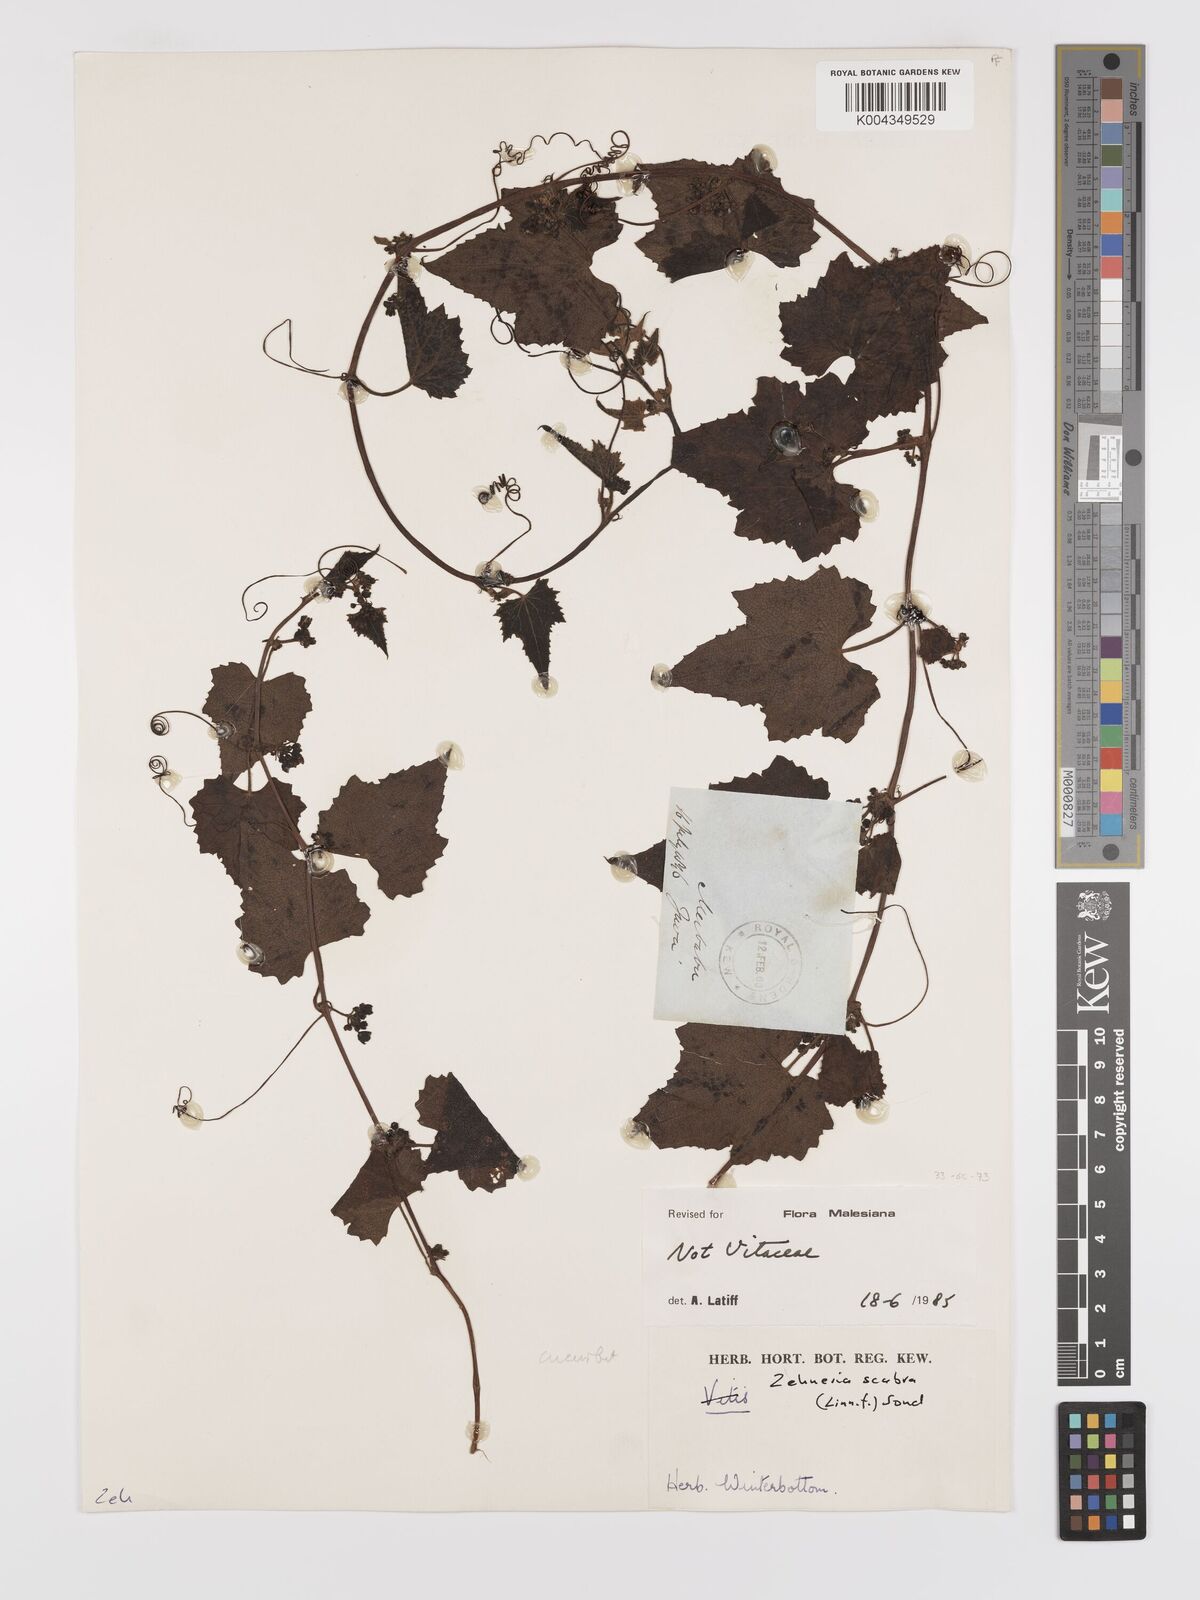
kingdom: Plantae
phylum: Tracheophyta
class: Magnoliopsida
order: Cucurbitales
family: Cucurbitaceae
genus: Zehneria
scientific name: Zehneria scabra
